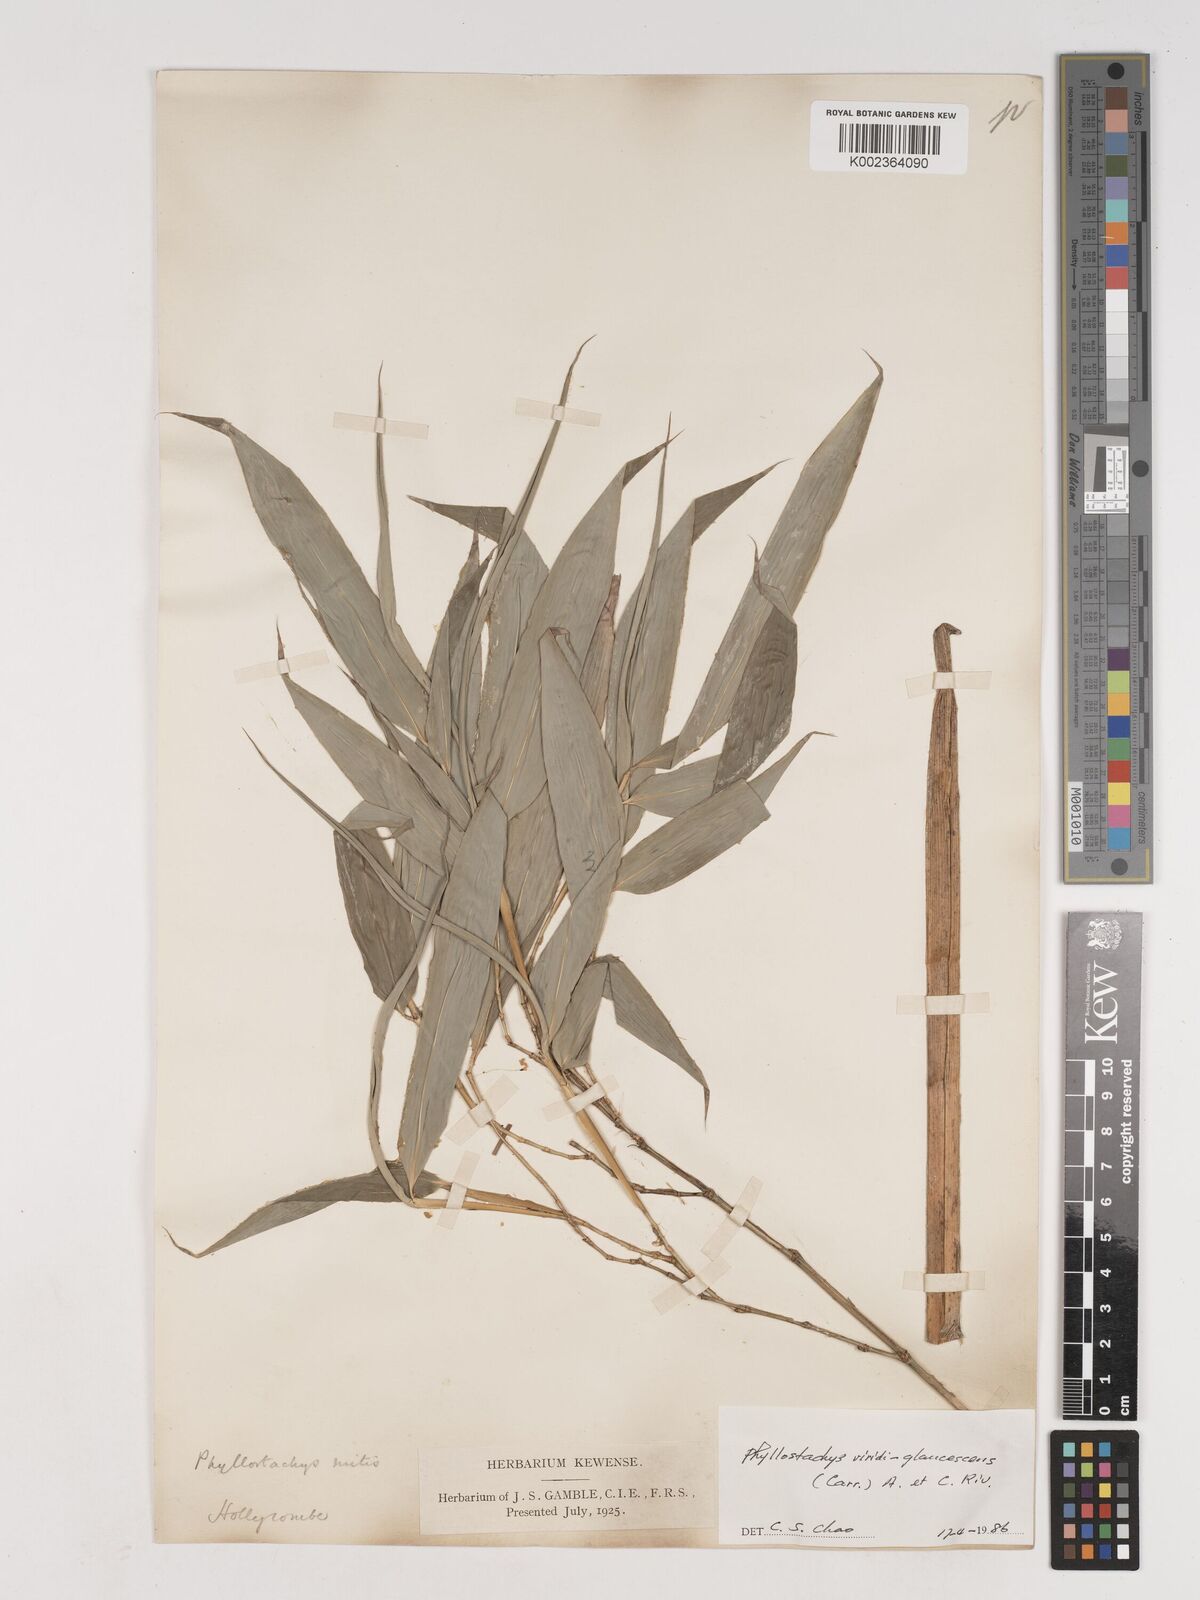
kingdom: Plantae
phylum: Tracheophyta
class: Liliopsida
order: Poales
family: Poaceae
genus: Phyllostachys
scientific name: Phyllostachys viridiglaucescens
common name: Greenwax golden bamboo
